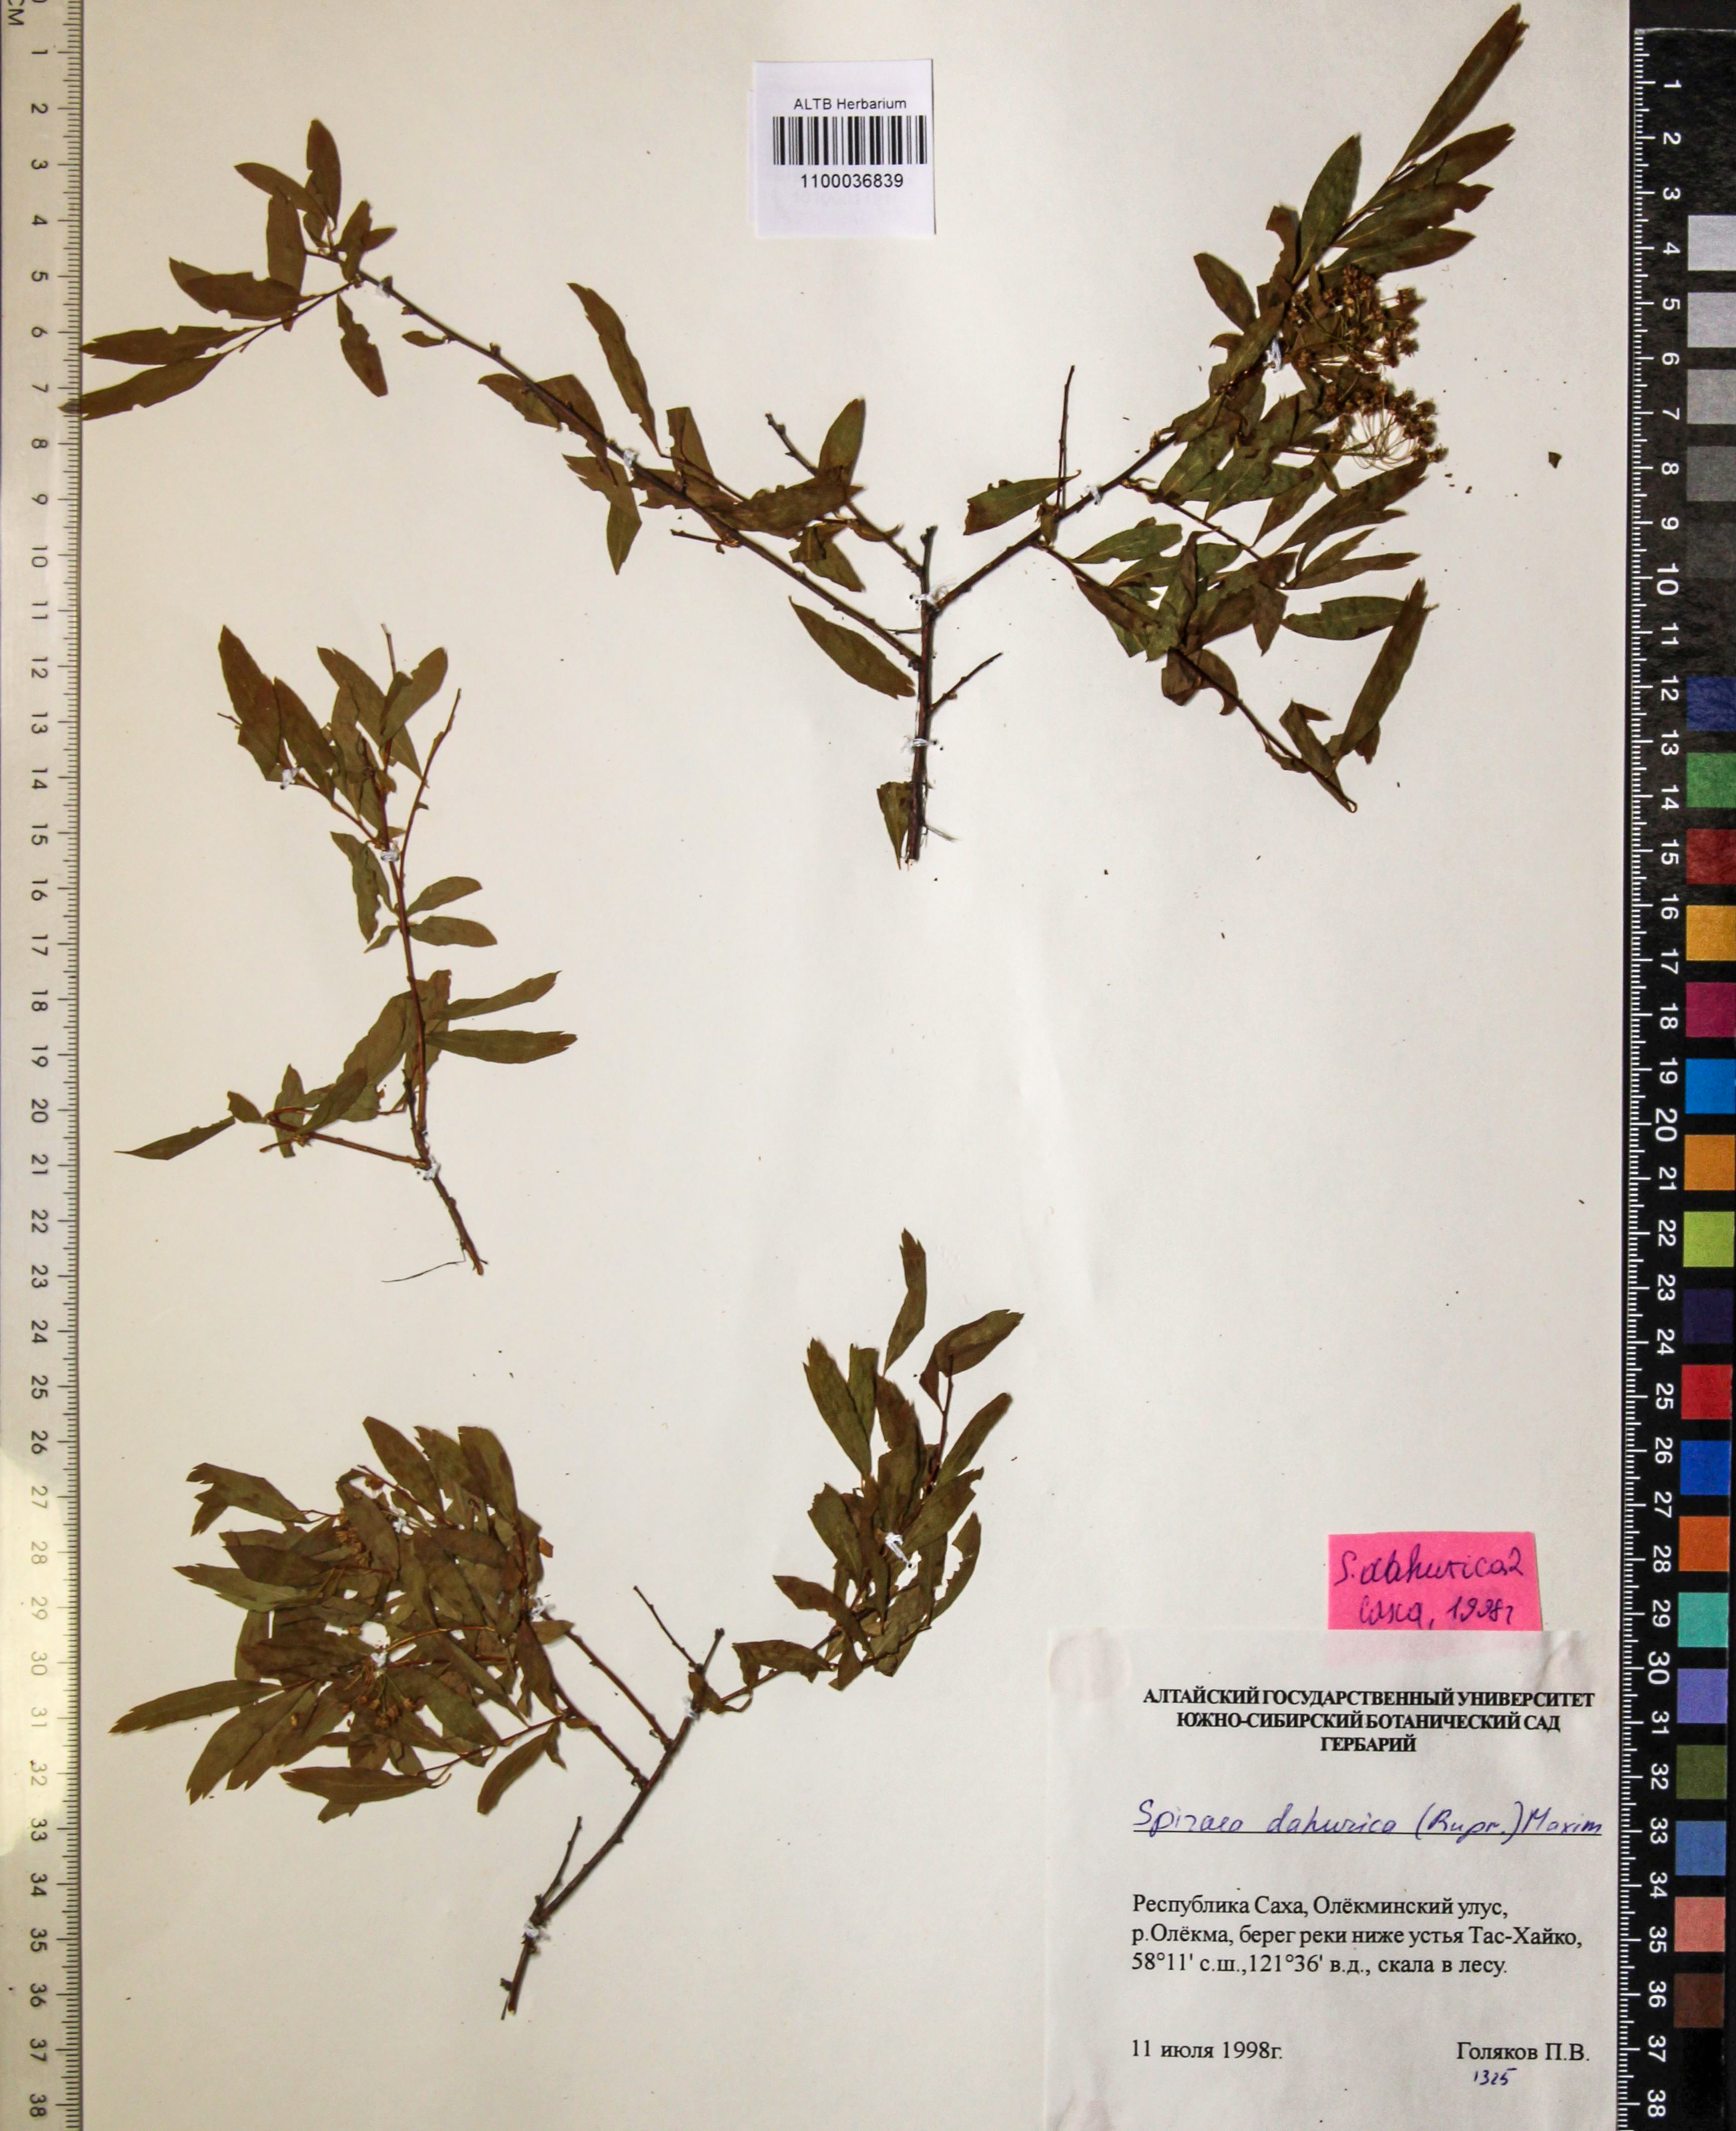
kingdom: Plantae
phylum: Tracheophyta
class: Magnoliopsida
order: Rosales
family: Rosaceae
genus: Spiraea
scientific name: Spiraea dahurica
